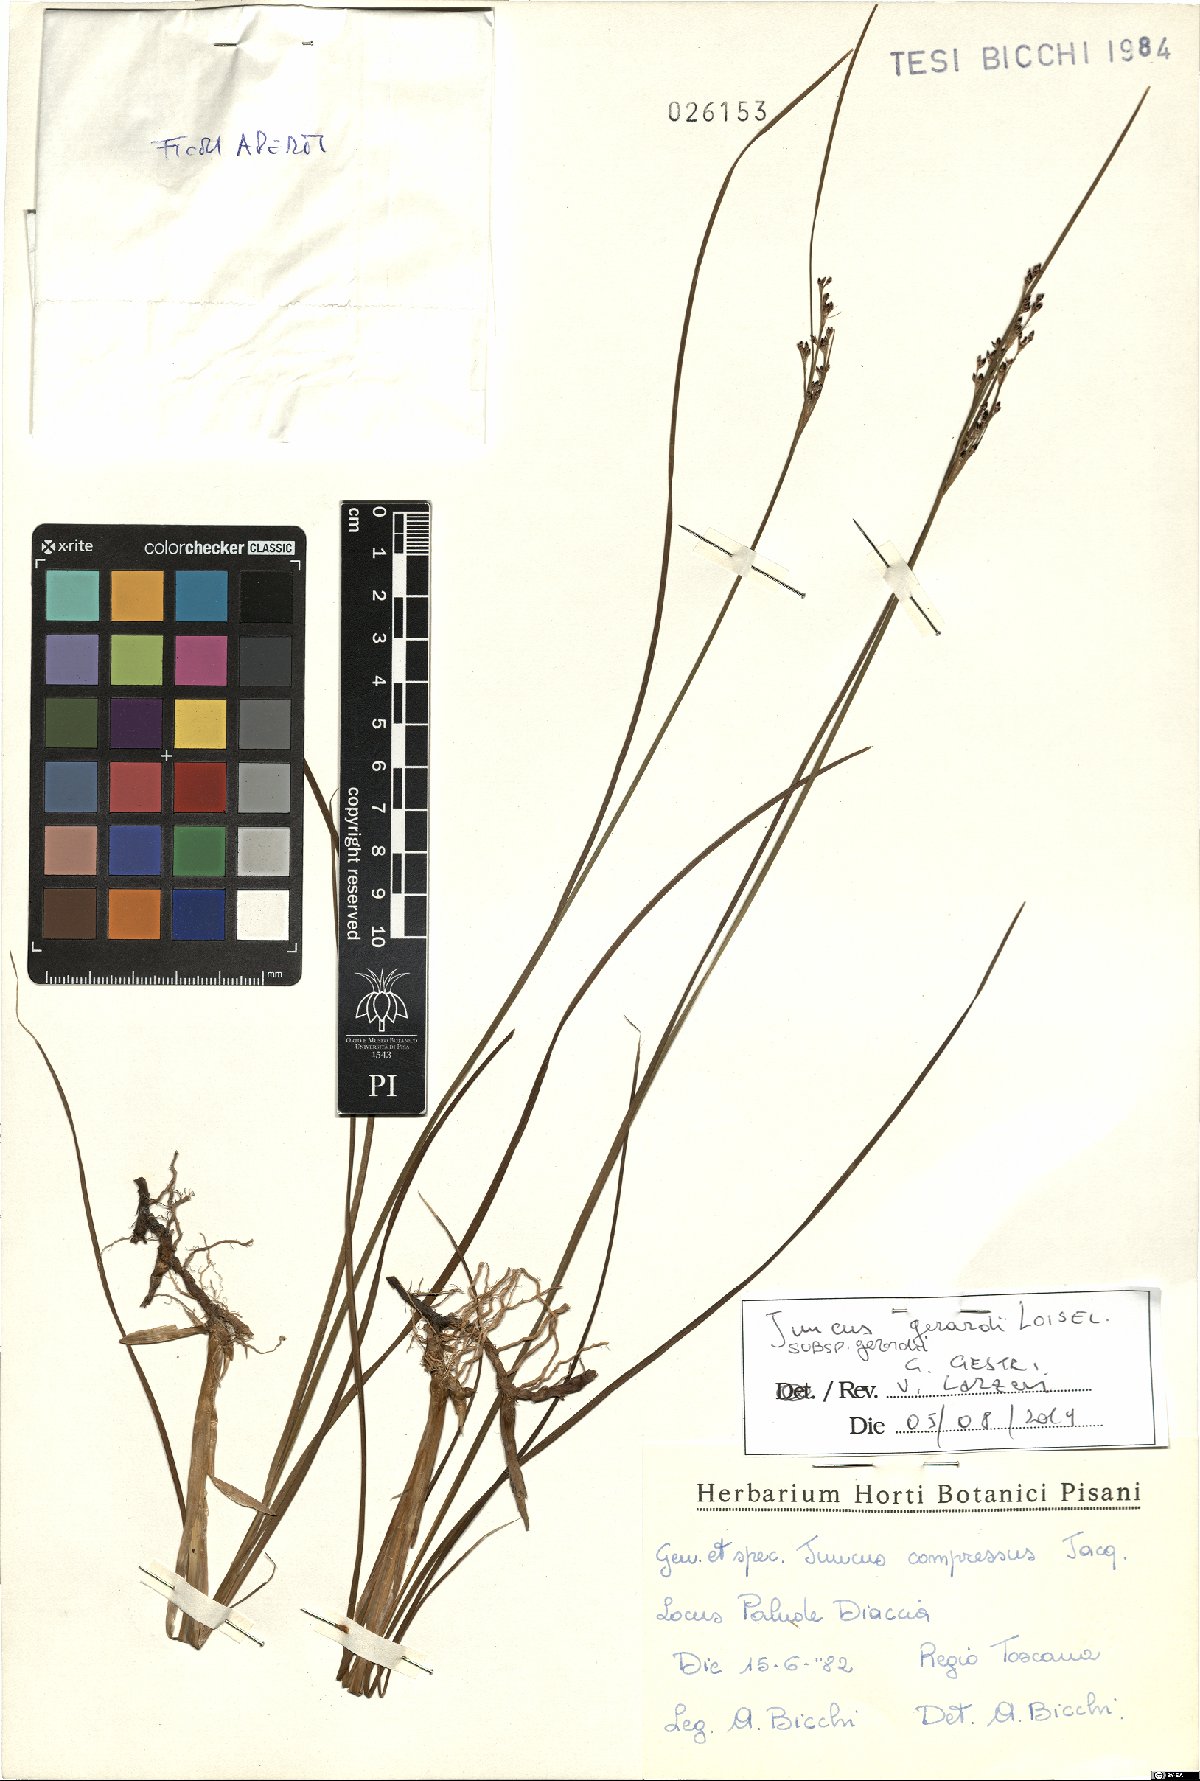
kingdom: Plantae
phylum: Tracheophyta
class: Liliopsida
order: Poales
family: Juncaceae
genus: Juncus
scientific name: Juncus gerardi
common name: Saltmarsh rush
